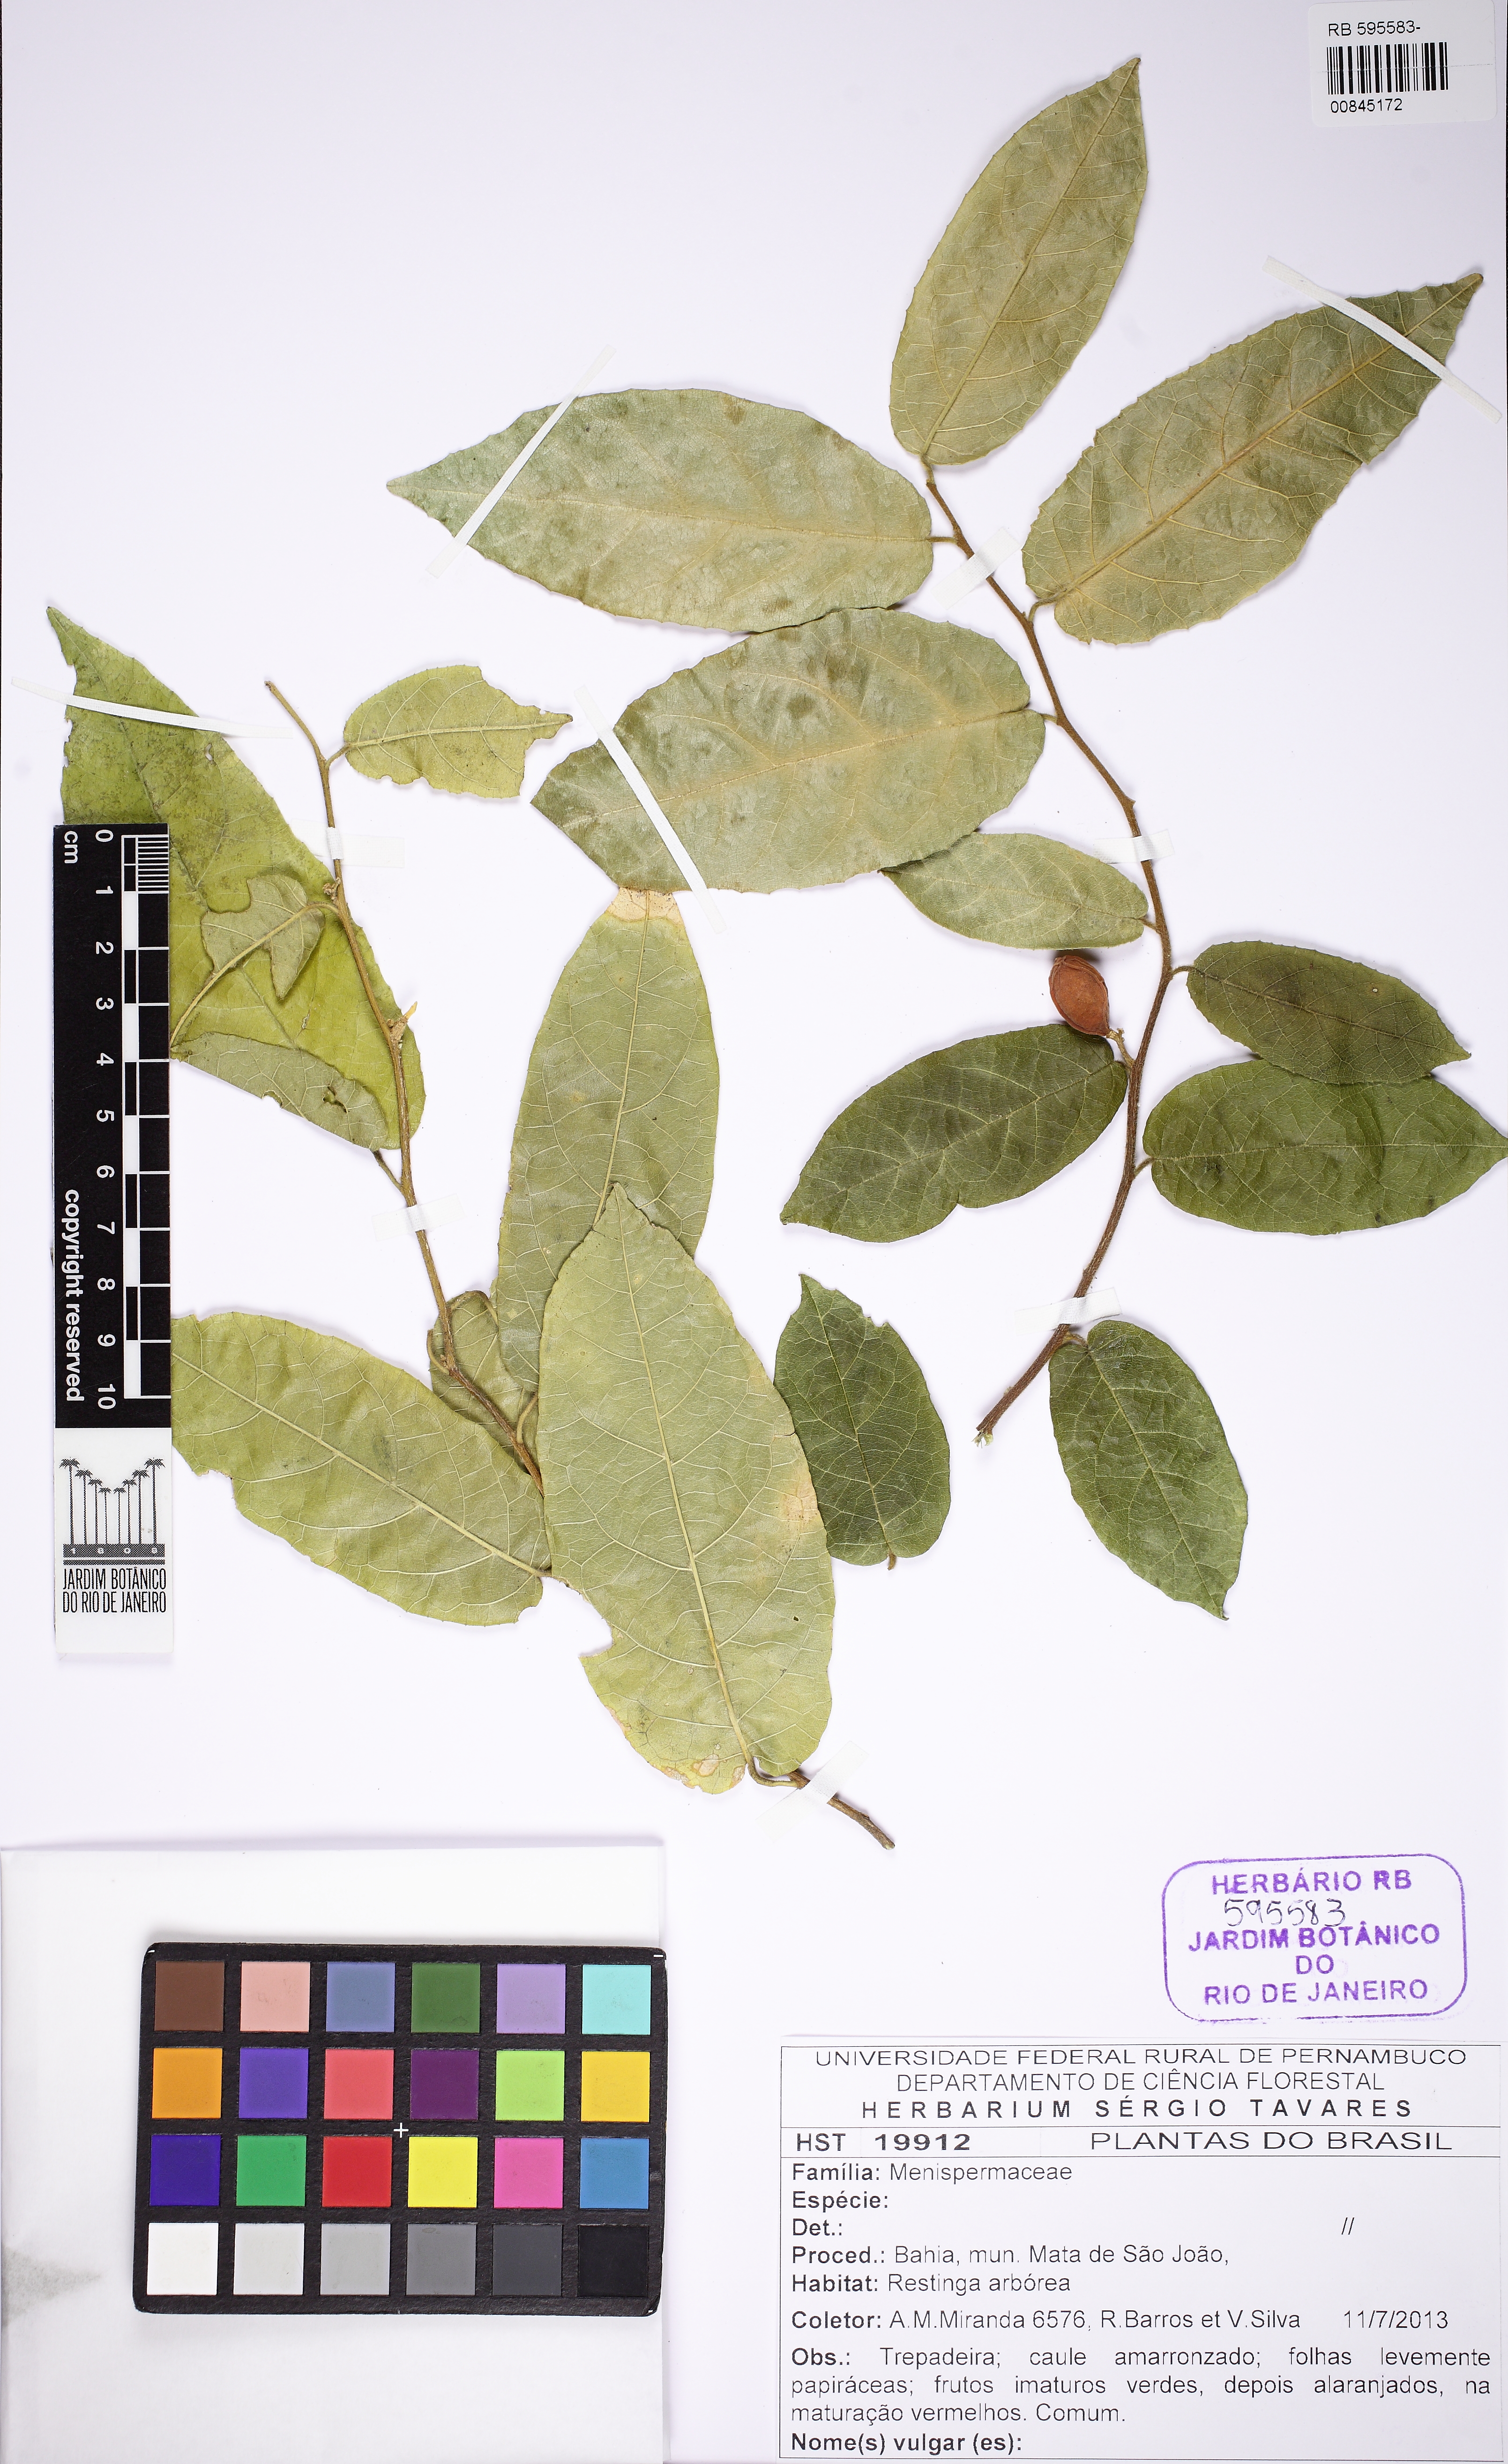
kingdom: Plantae
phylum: Tracheophyta
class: Magnoliopsida
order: Icacinales
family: Icacinaceae
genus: Pleurisanthes
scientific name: Pleurisanthes
